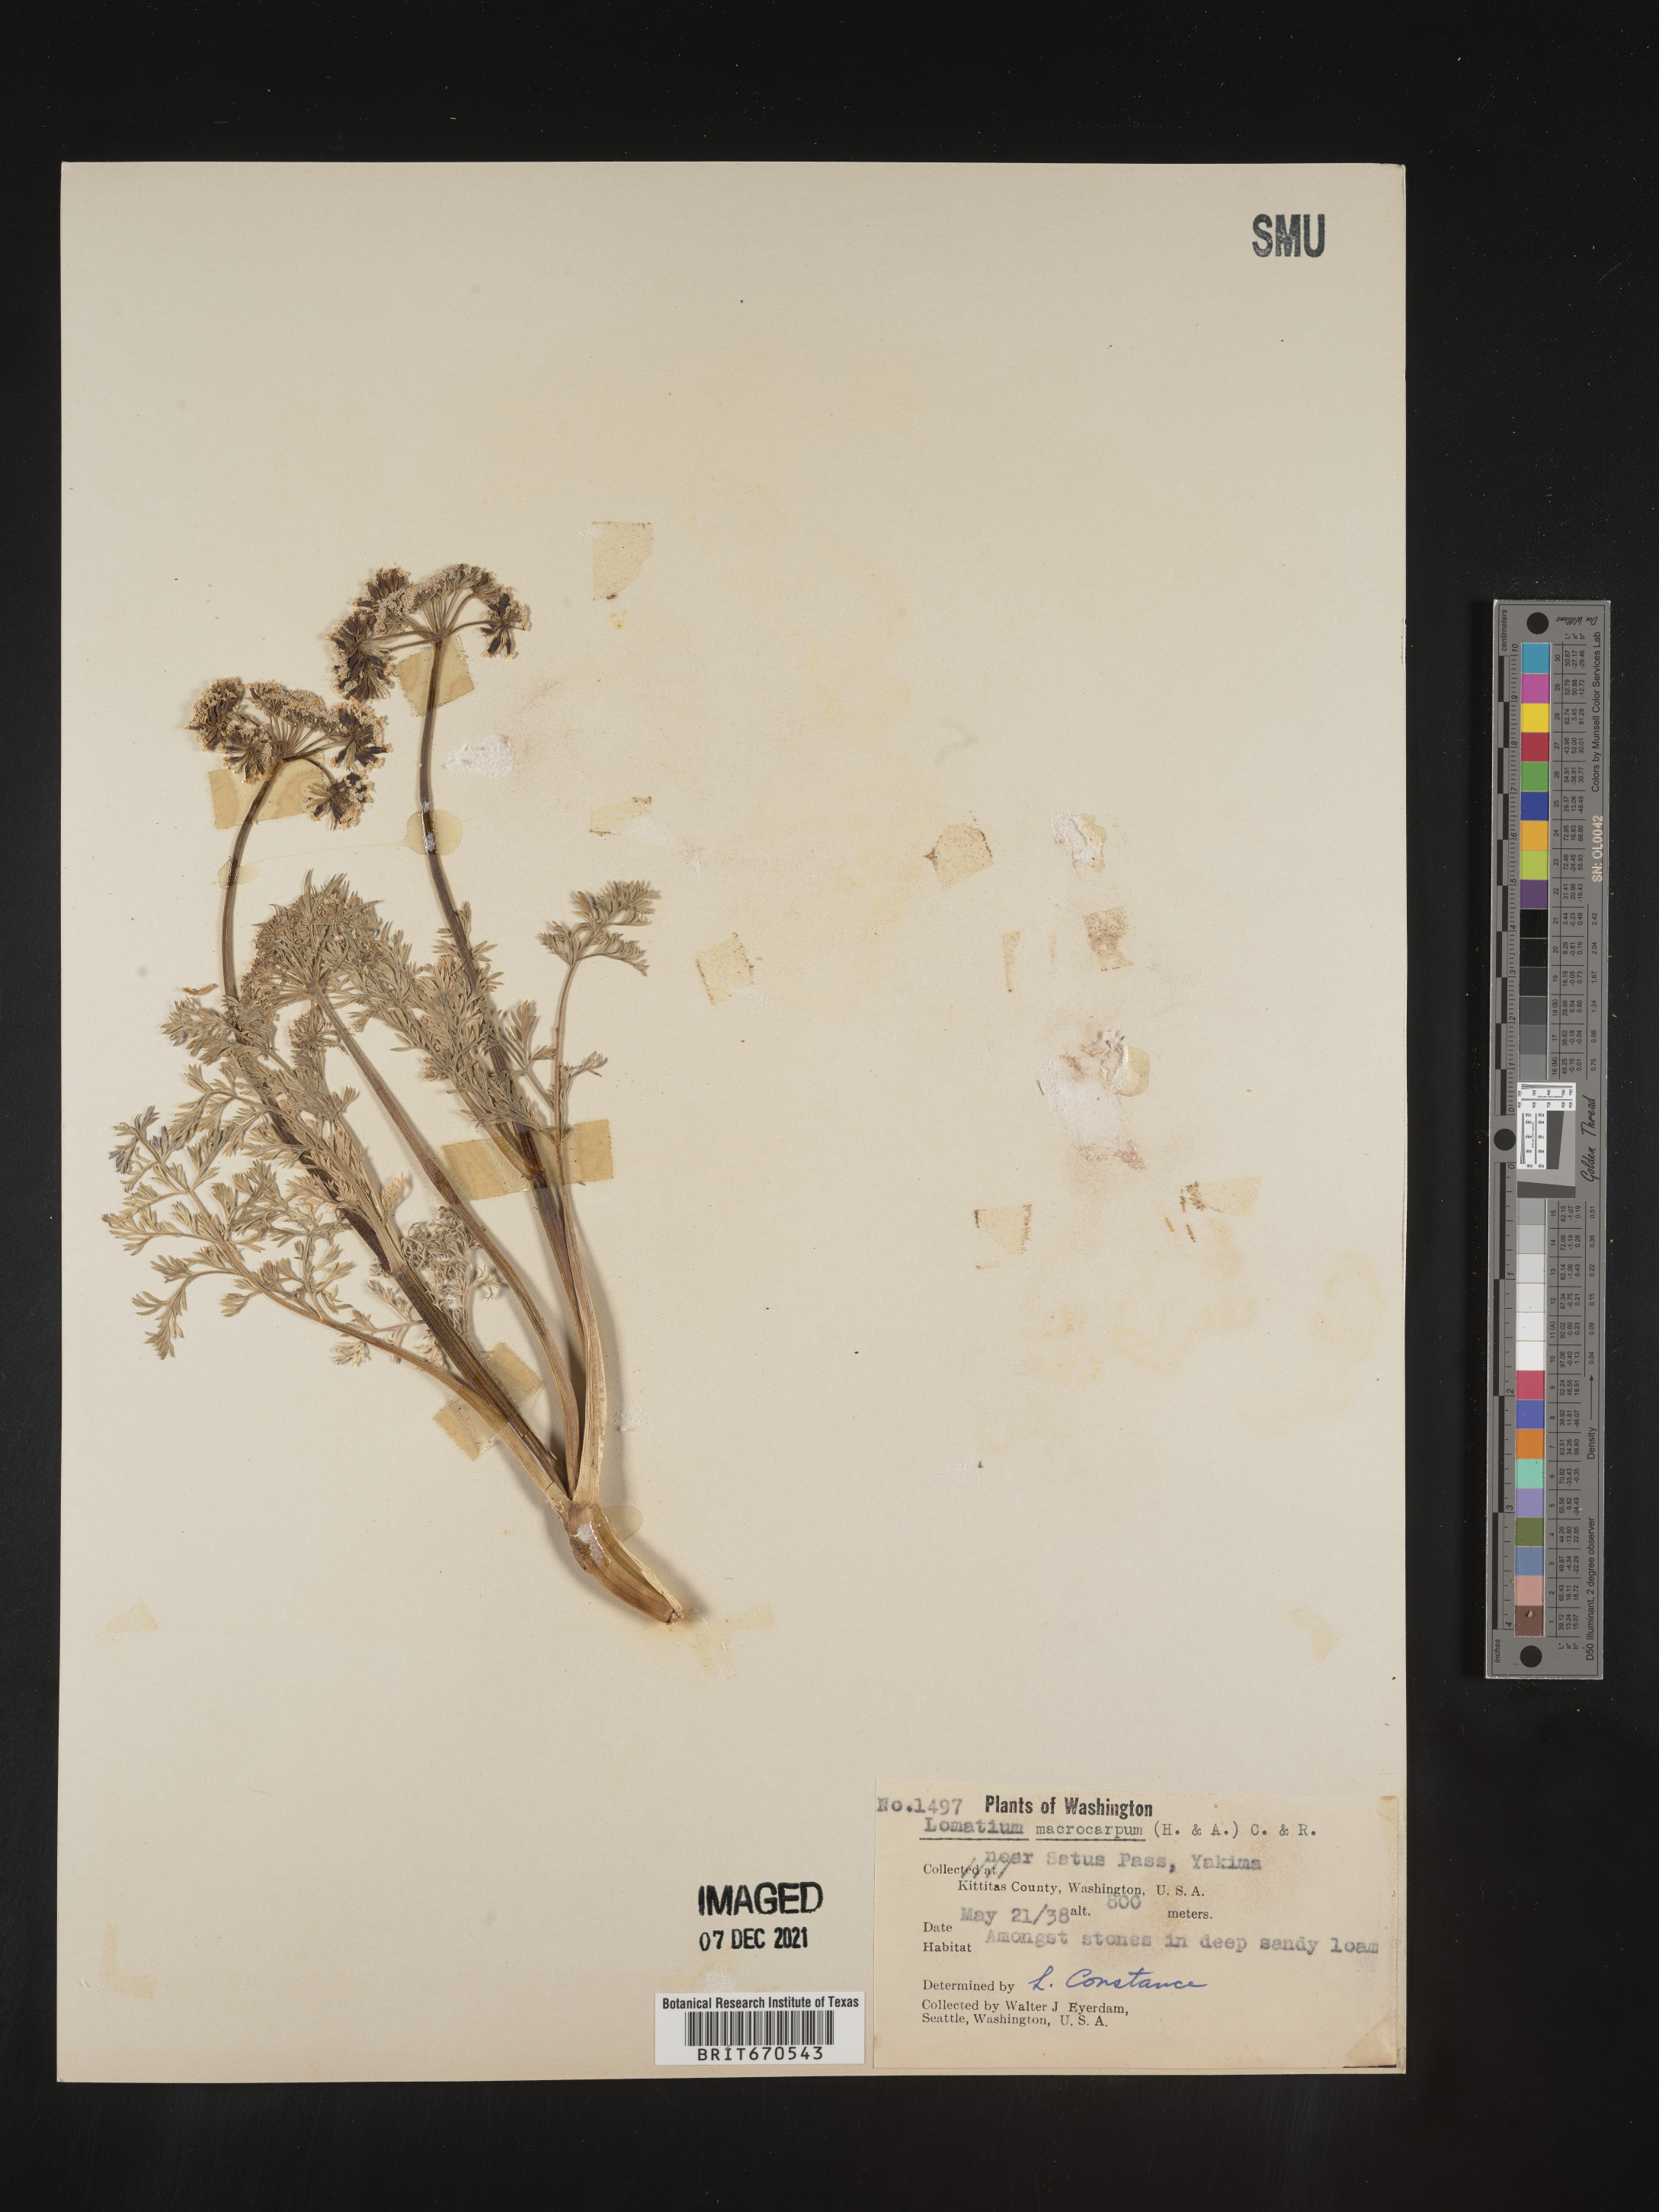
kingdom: Plantae
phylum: Tracheophyta
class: Magnoliopsida
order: Apiales
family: Apiaceae
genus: Lomatium
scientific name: Lomatium macrocarpum
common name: Big-seed biscuitroot
